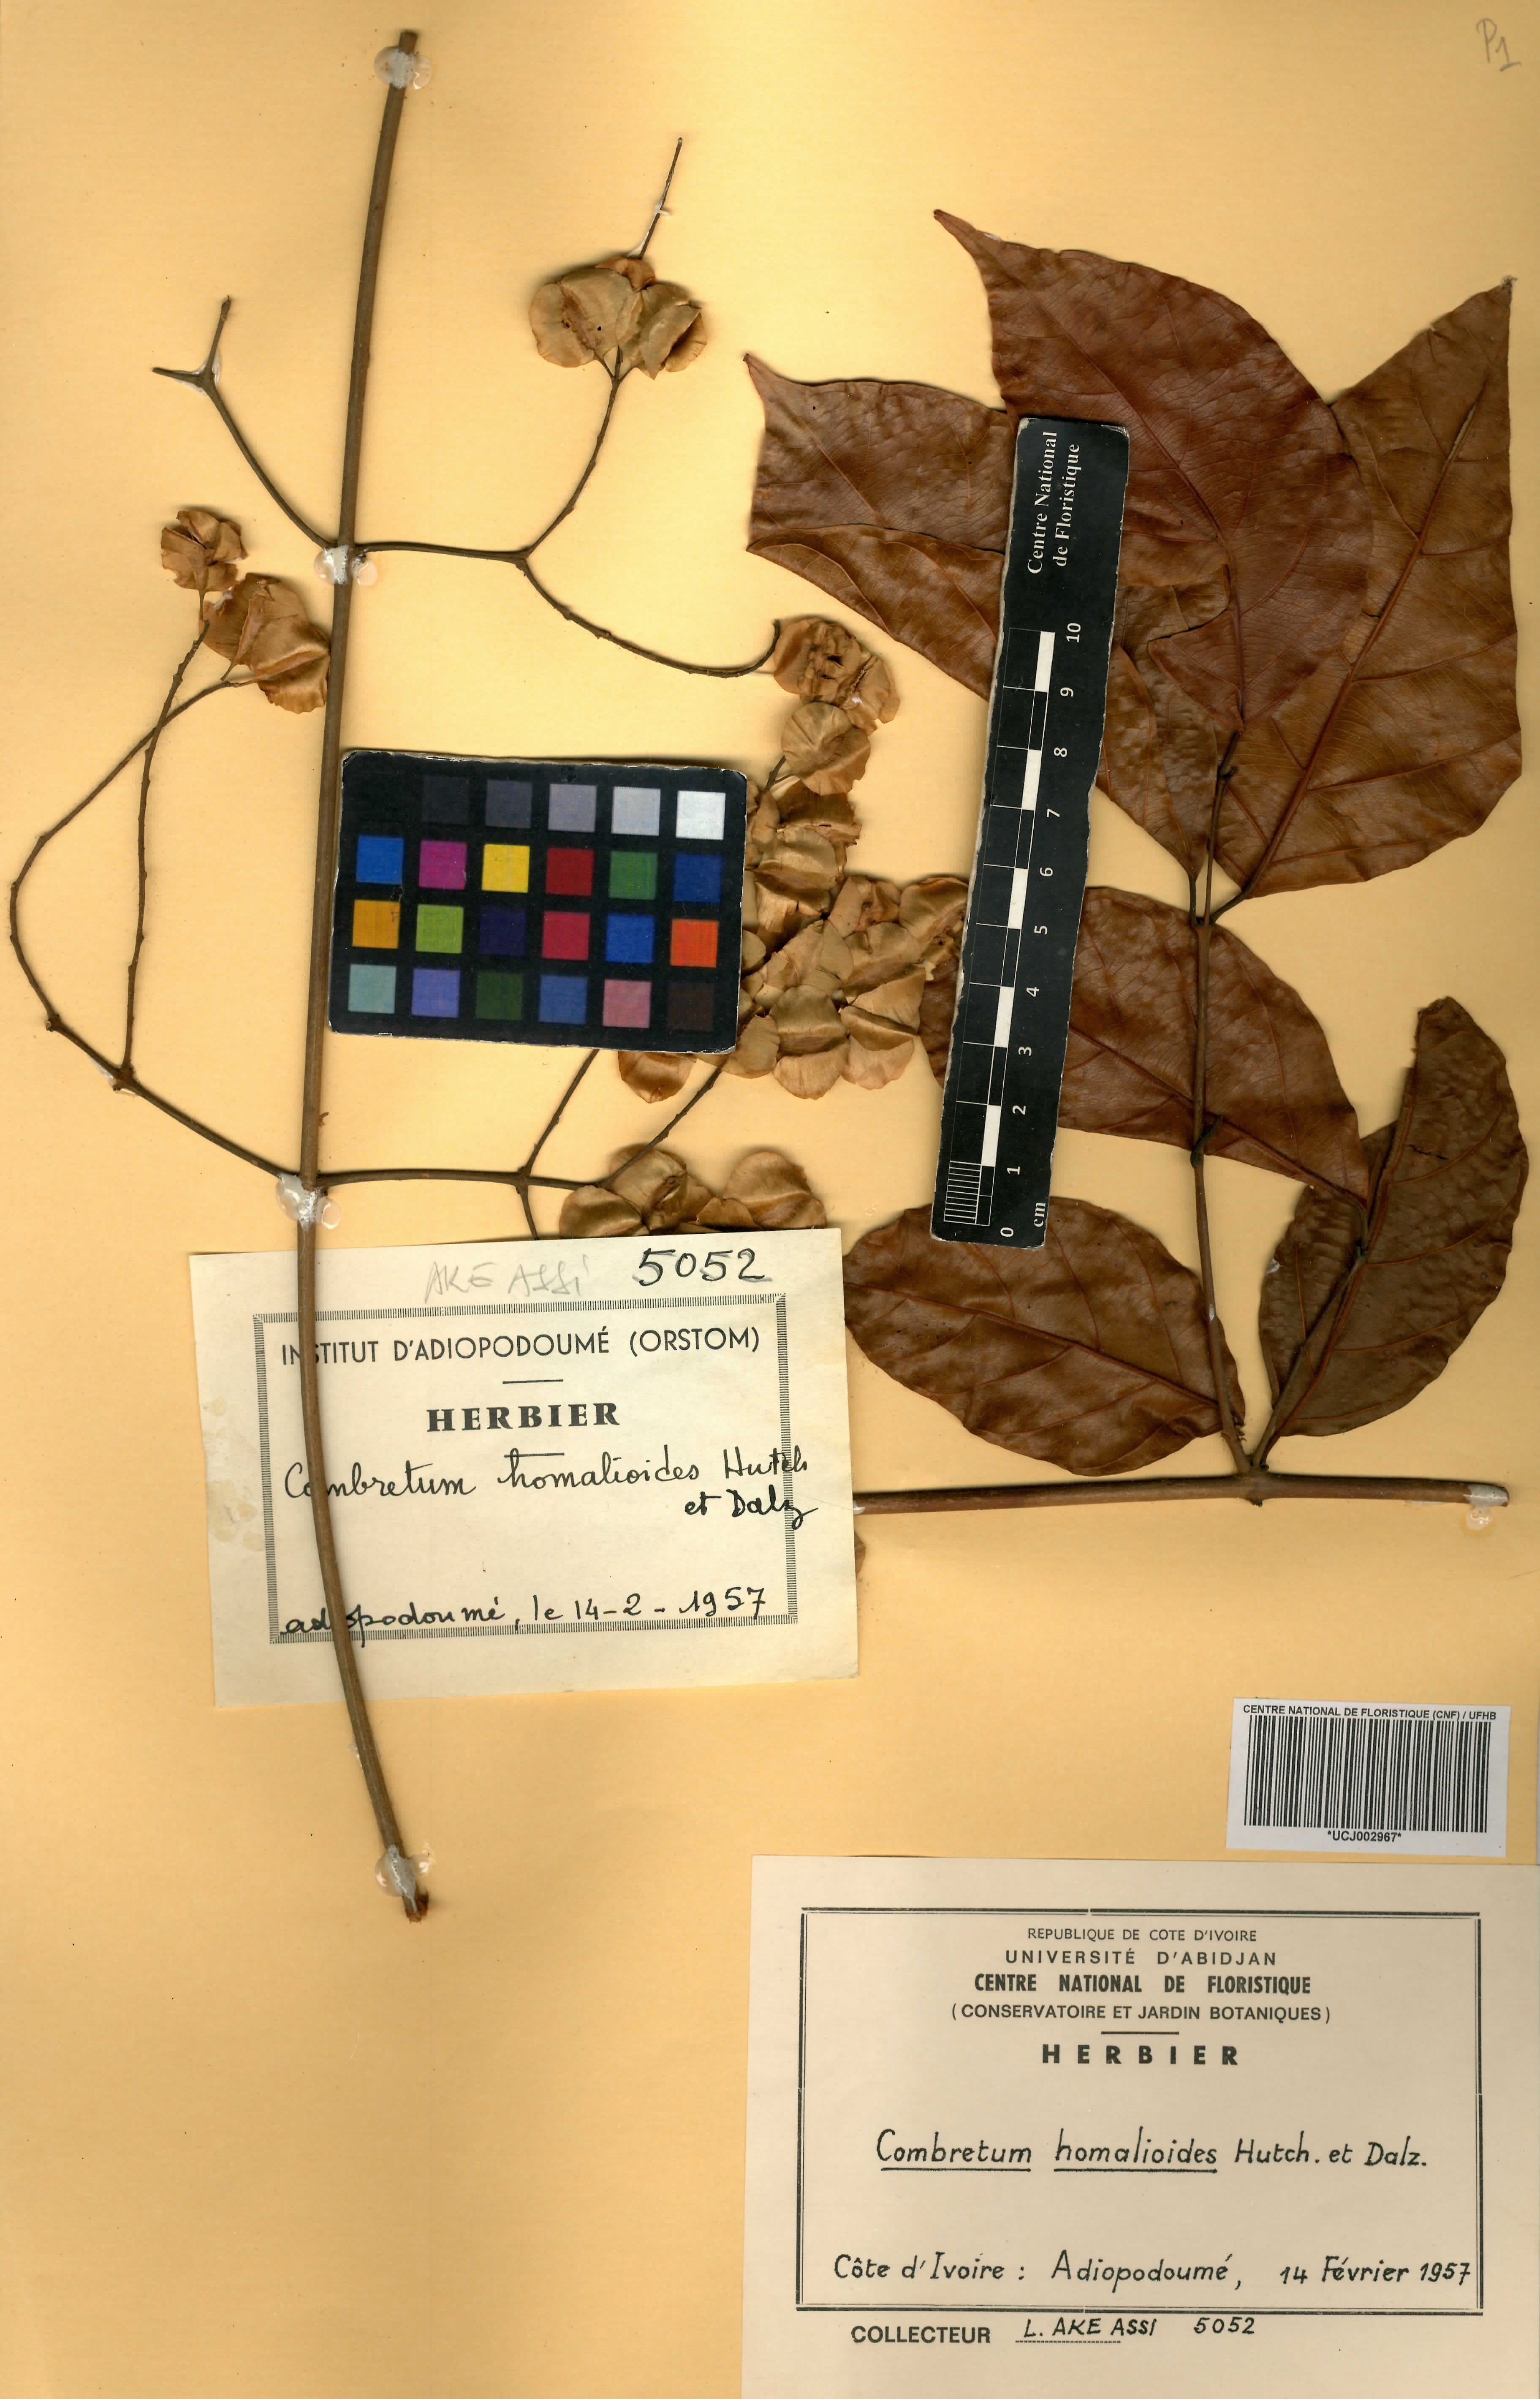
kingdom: Plantae
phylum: Tracheophyta
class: Magnoliopsida
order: Myrtales
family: Combretaceae
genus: Combretum
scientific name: Combretum homalioides
